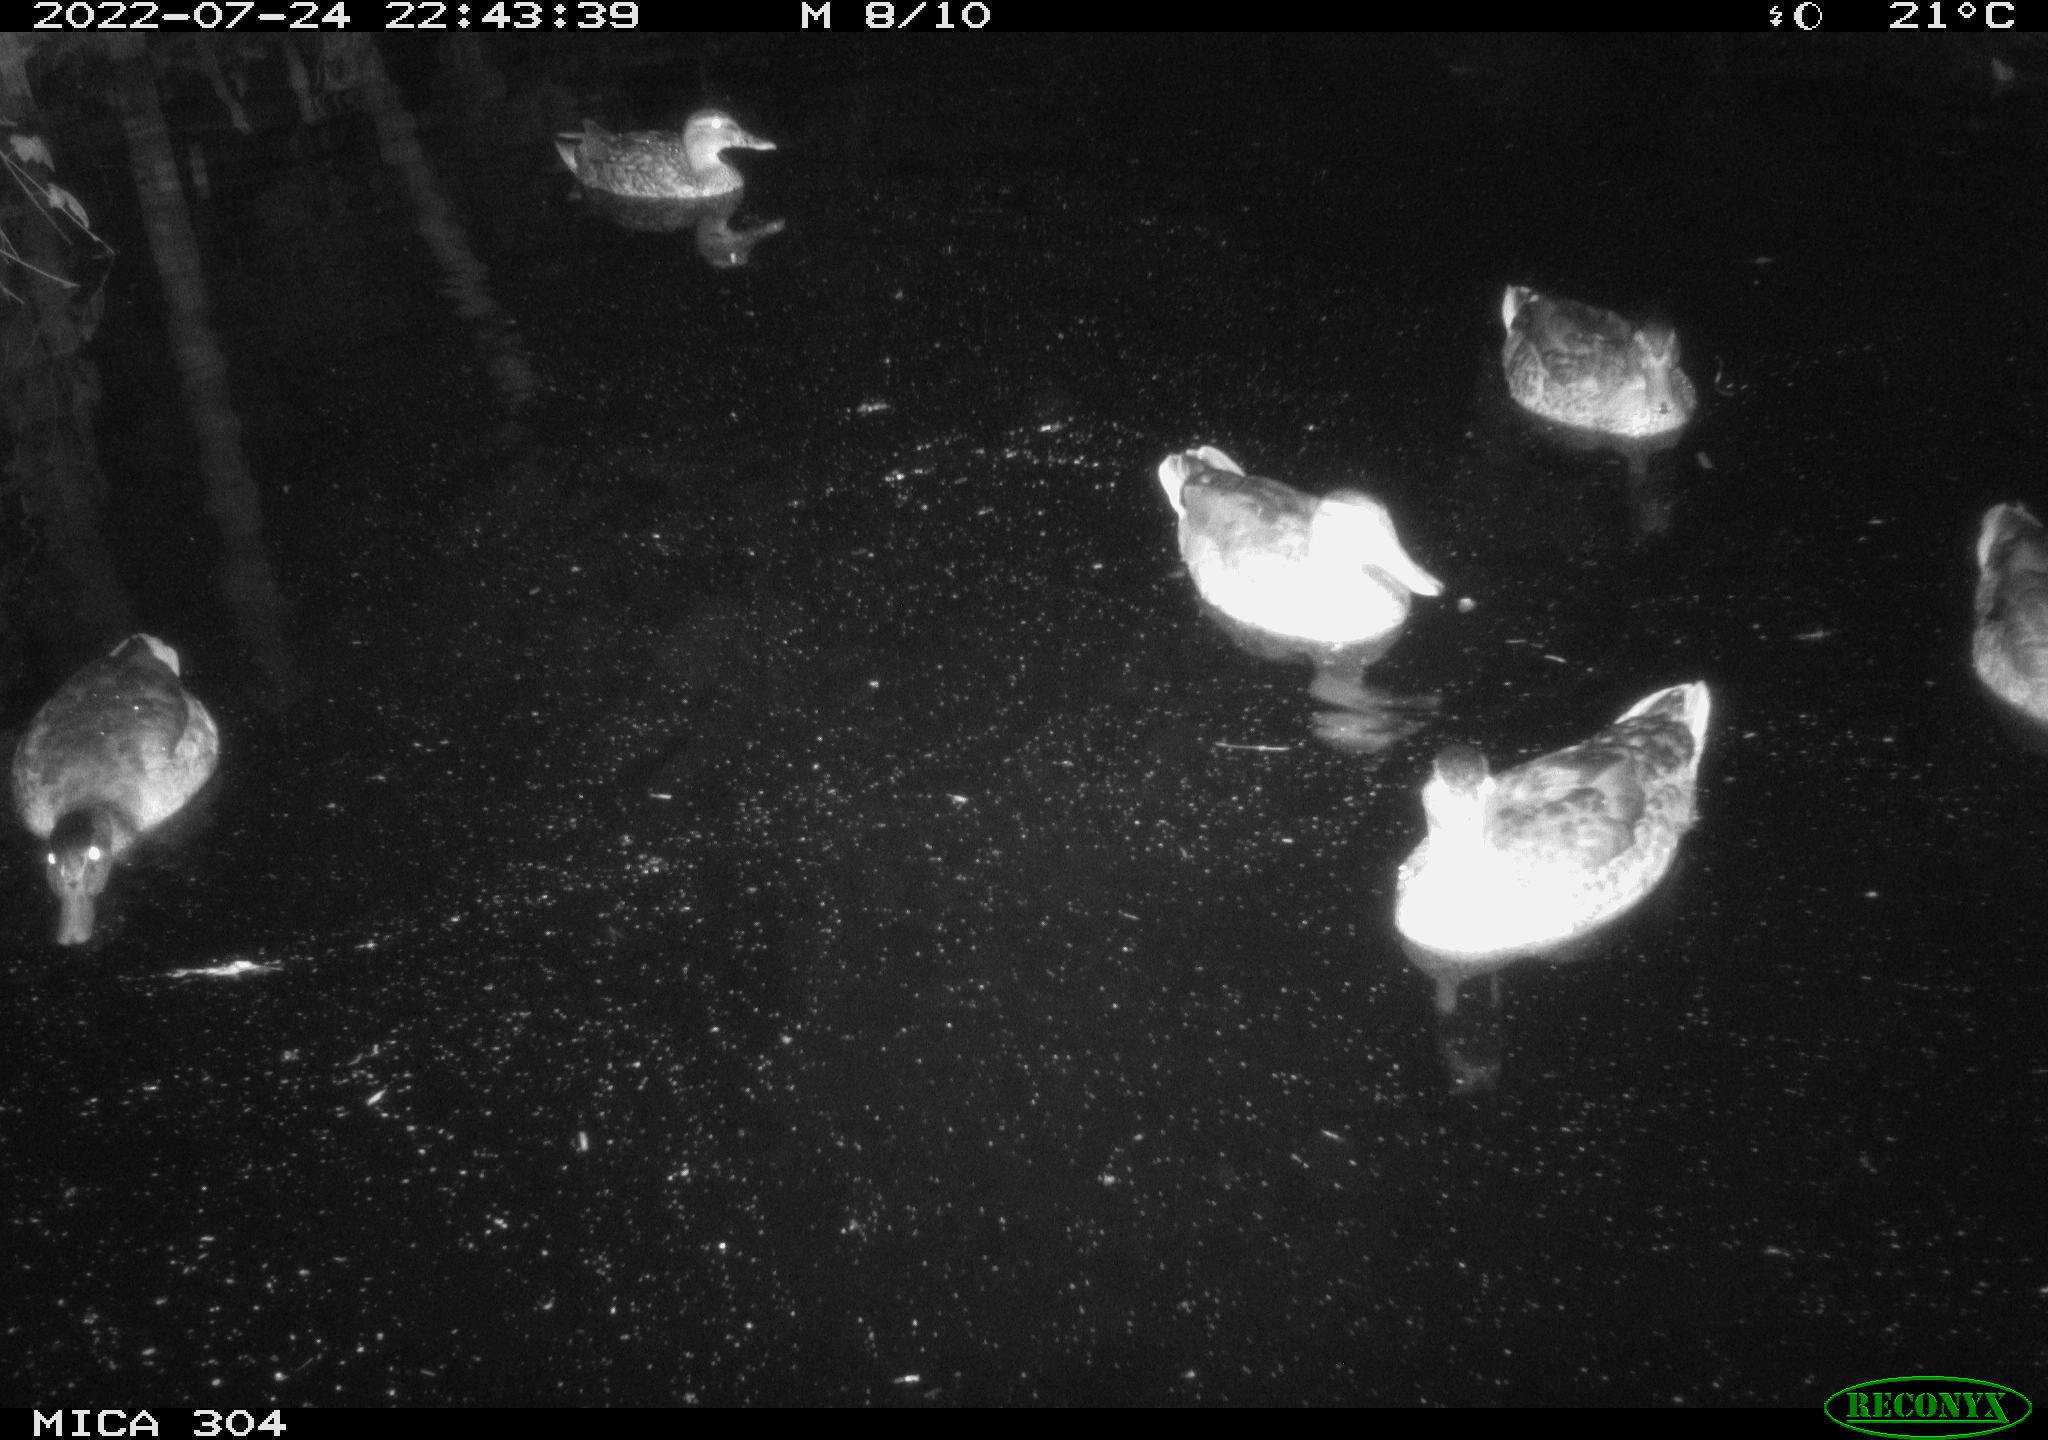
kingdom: Animalia
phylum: Chordata
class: Aves
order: Anseriformes
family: Anatidae
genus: Anas
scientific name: Anas platyrhynchos
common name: Mallard
